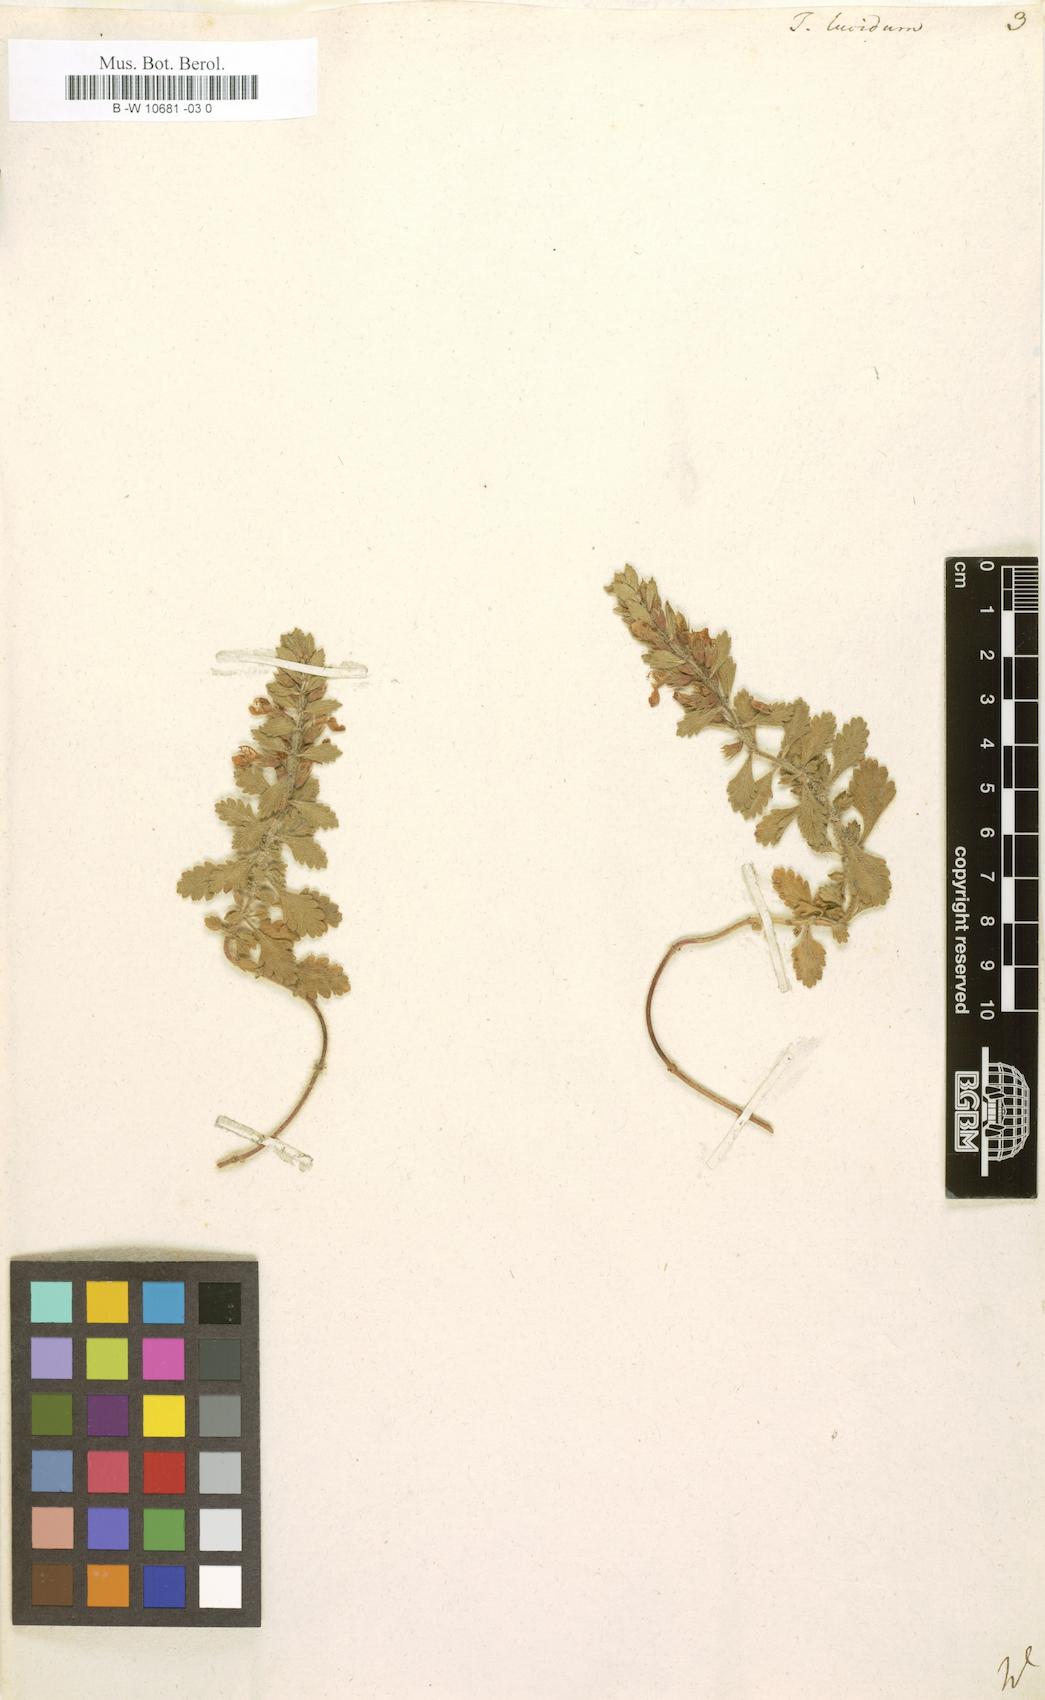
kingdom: Plantae
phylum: Tracheophyta
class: Magnoliopsida
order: Lamiales
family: Lamiaceae
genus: Teucrium
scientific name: Teucrium lucidum
